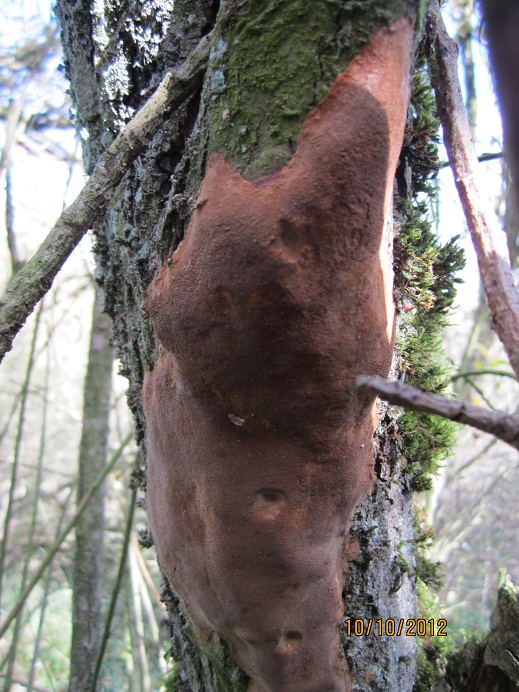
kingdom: Fungi
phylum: Basidiomycota
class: Agaricomycetes
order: Hymenochaetales
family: Hymenochaetaceae
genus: Fomitiporia
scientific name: Fomitiporia punctata
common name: pude-ildporesvamp
